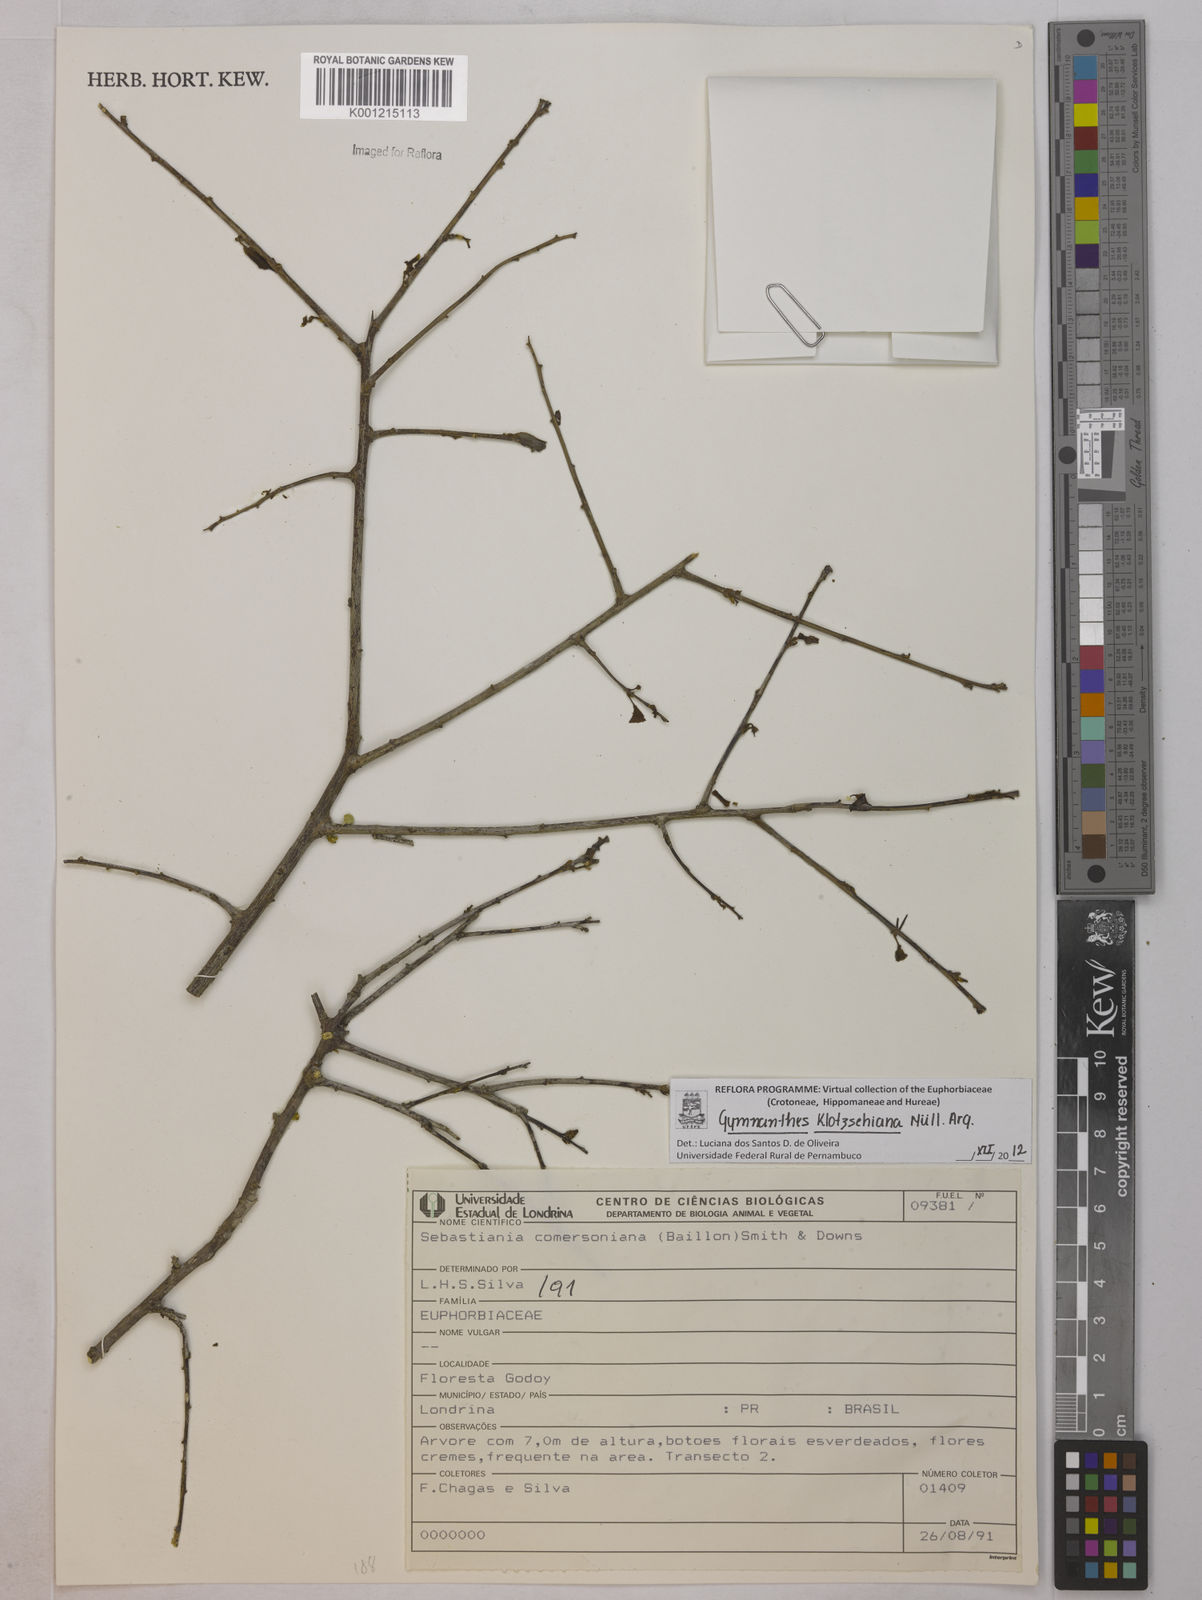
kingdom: Plantae
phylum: Tracheophyta
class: Magnoliopsida
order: Malpighiales
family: Euphorbiaceae
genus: Gymnanthes
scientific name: Gymnanthes
